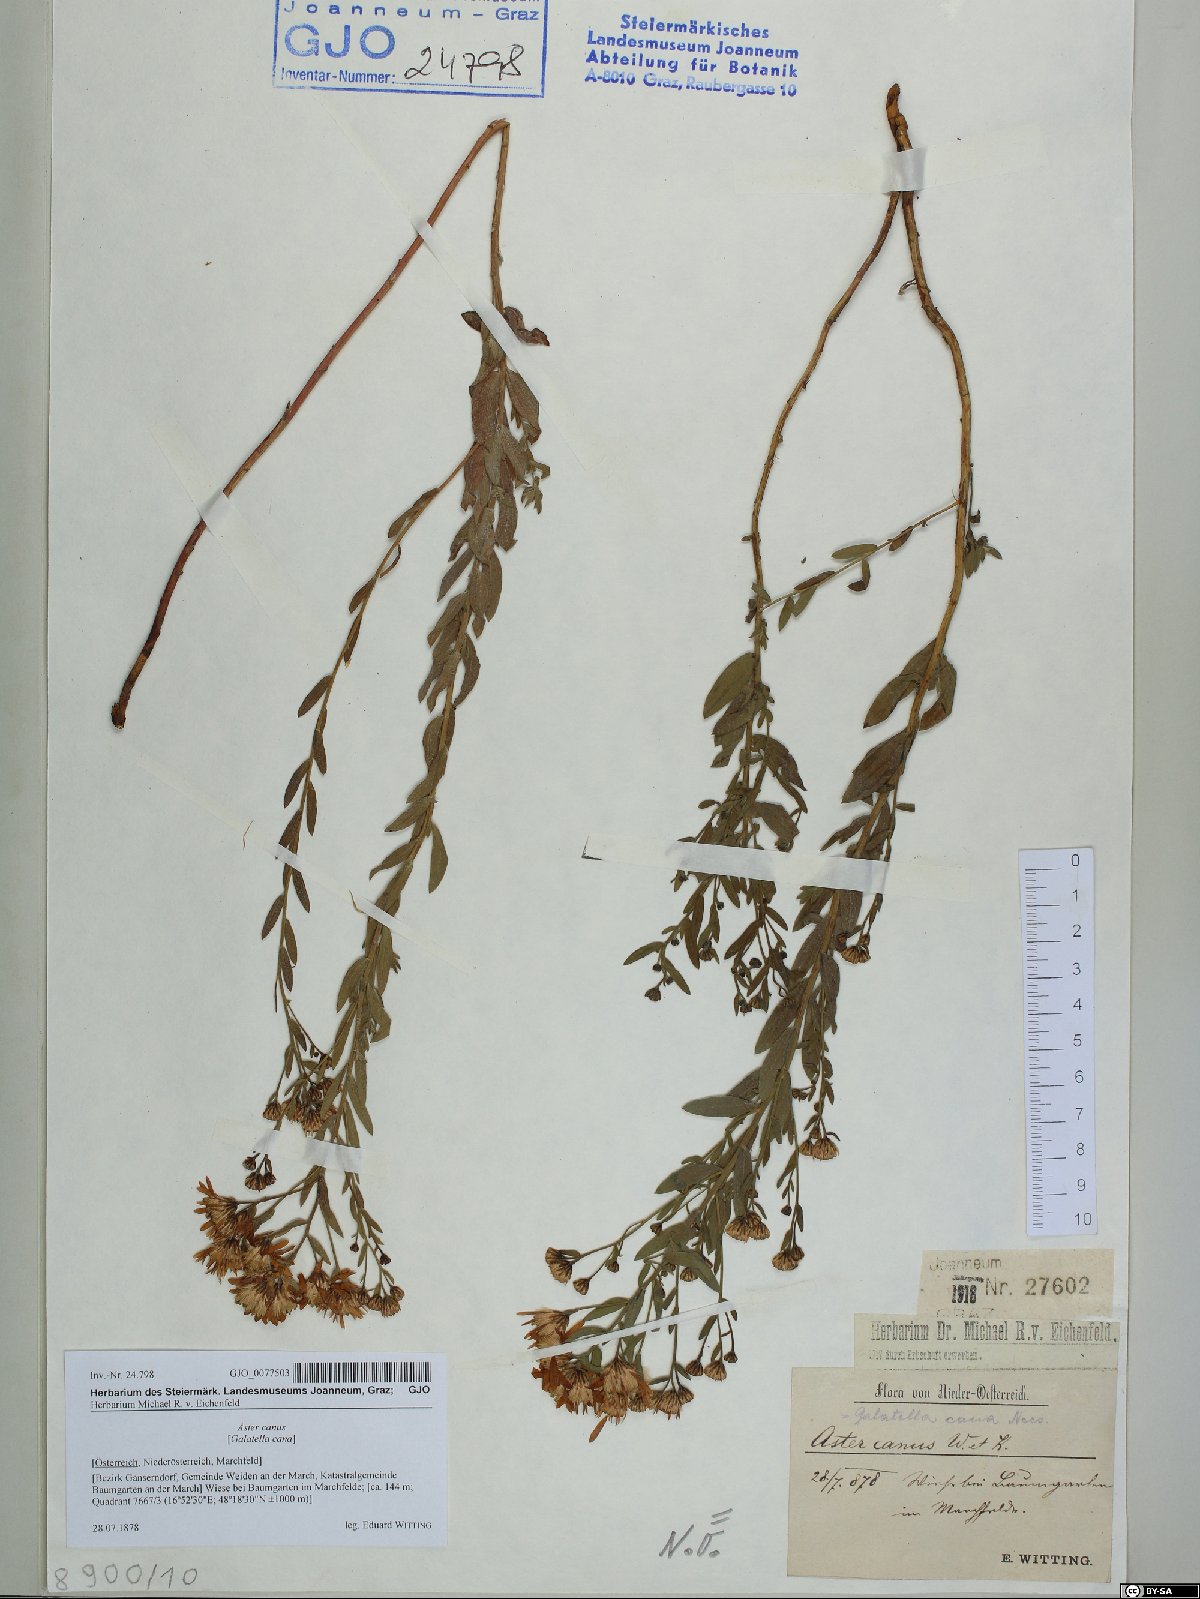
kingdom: Plantae
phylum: Tracheophyta
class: Magnoliopsida
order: Asterales
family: Asteraceae
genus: Galatella
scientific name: Galatella cana
